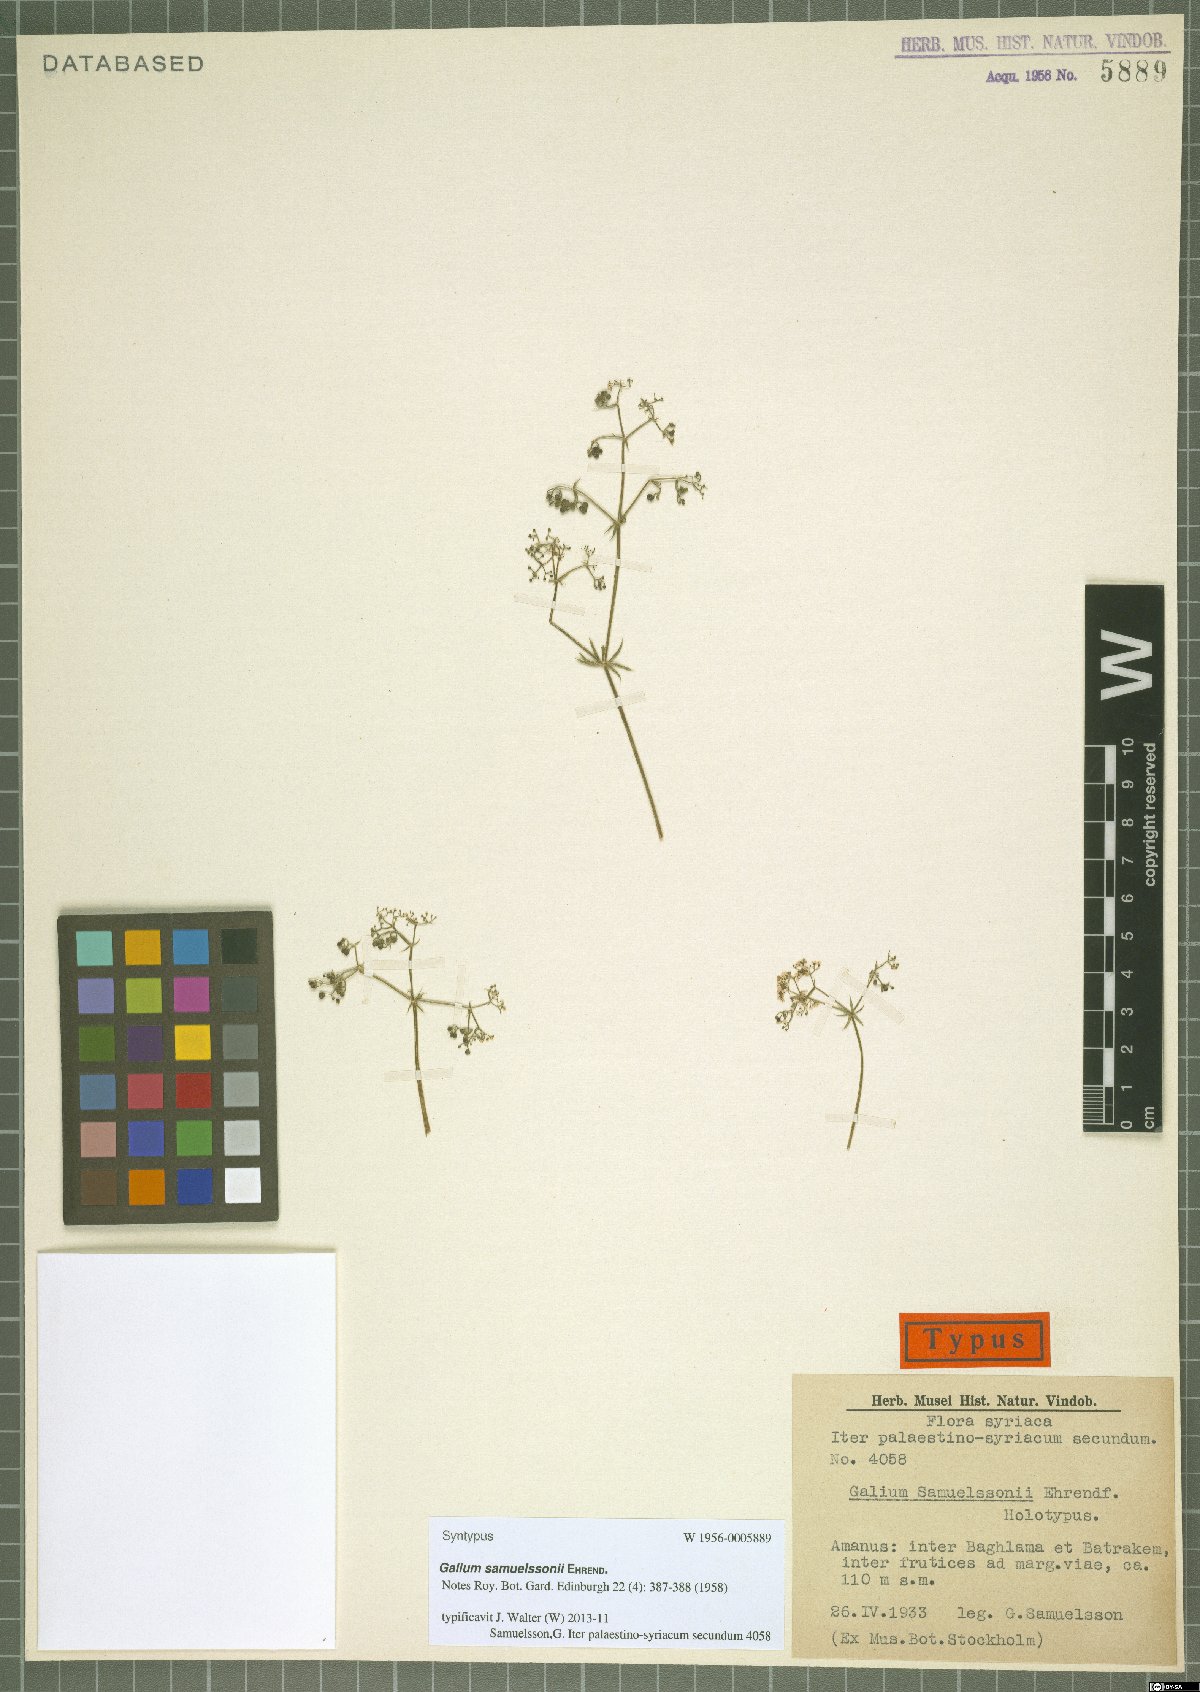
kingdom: Plantae
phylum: Tracheophyta
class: Magnoliopsida
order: Gentianales
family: Rubiaceae
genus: Galium
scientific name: Galium samuelssonii
